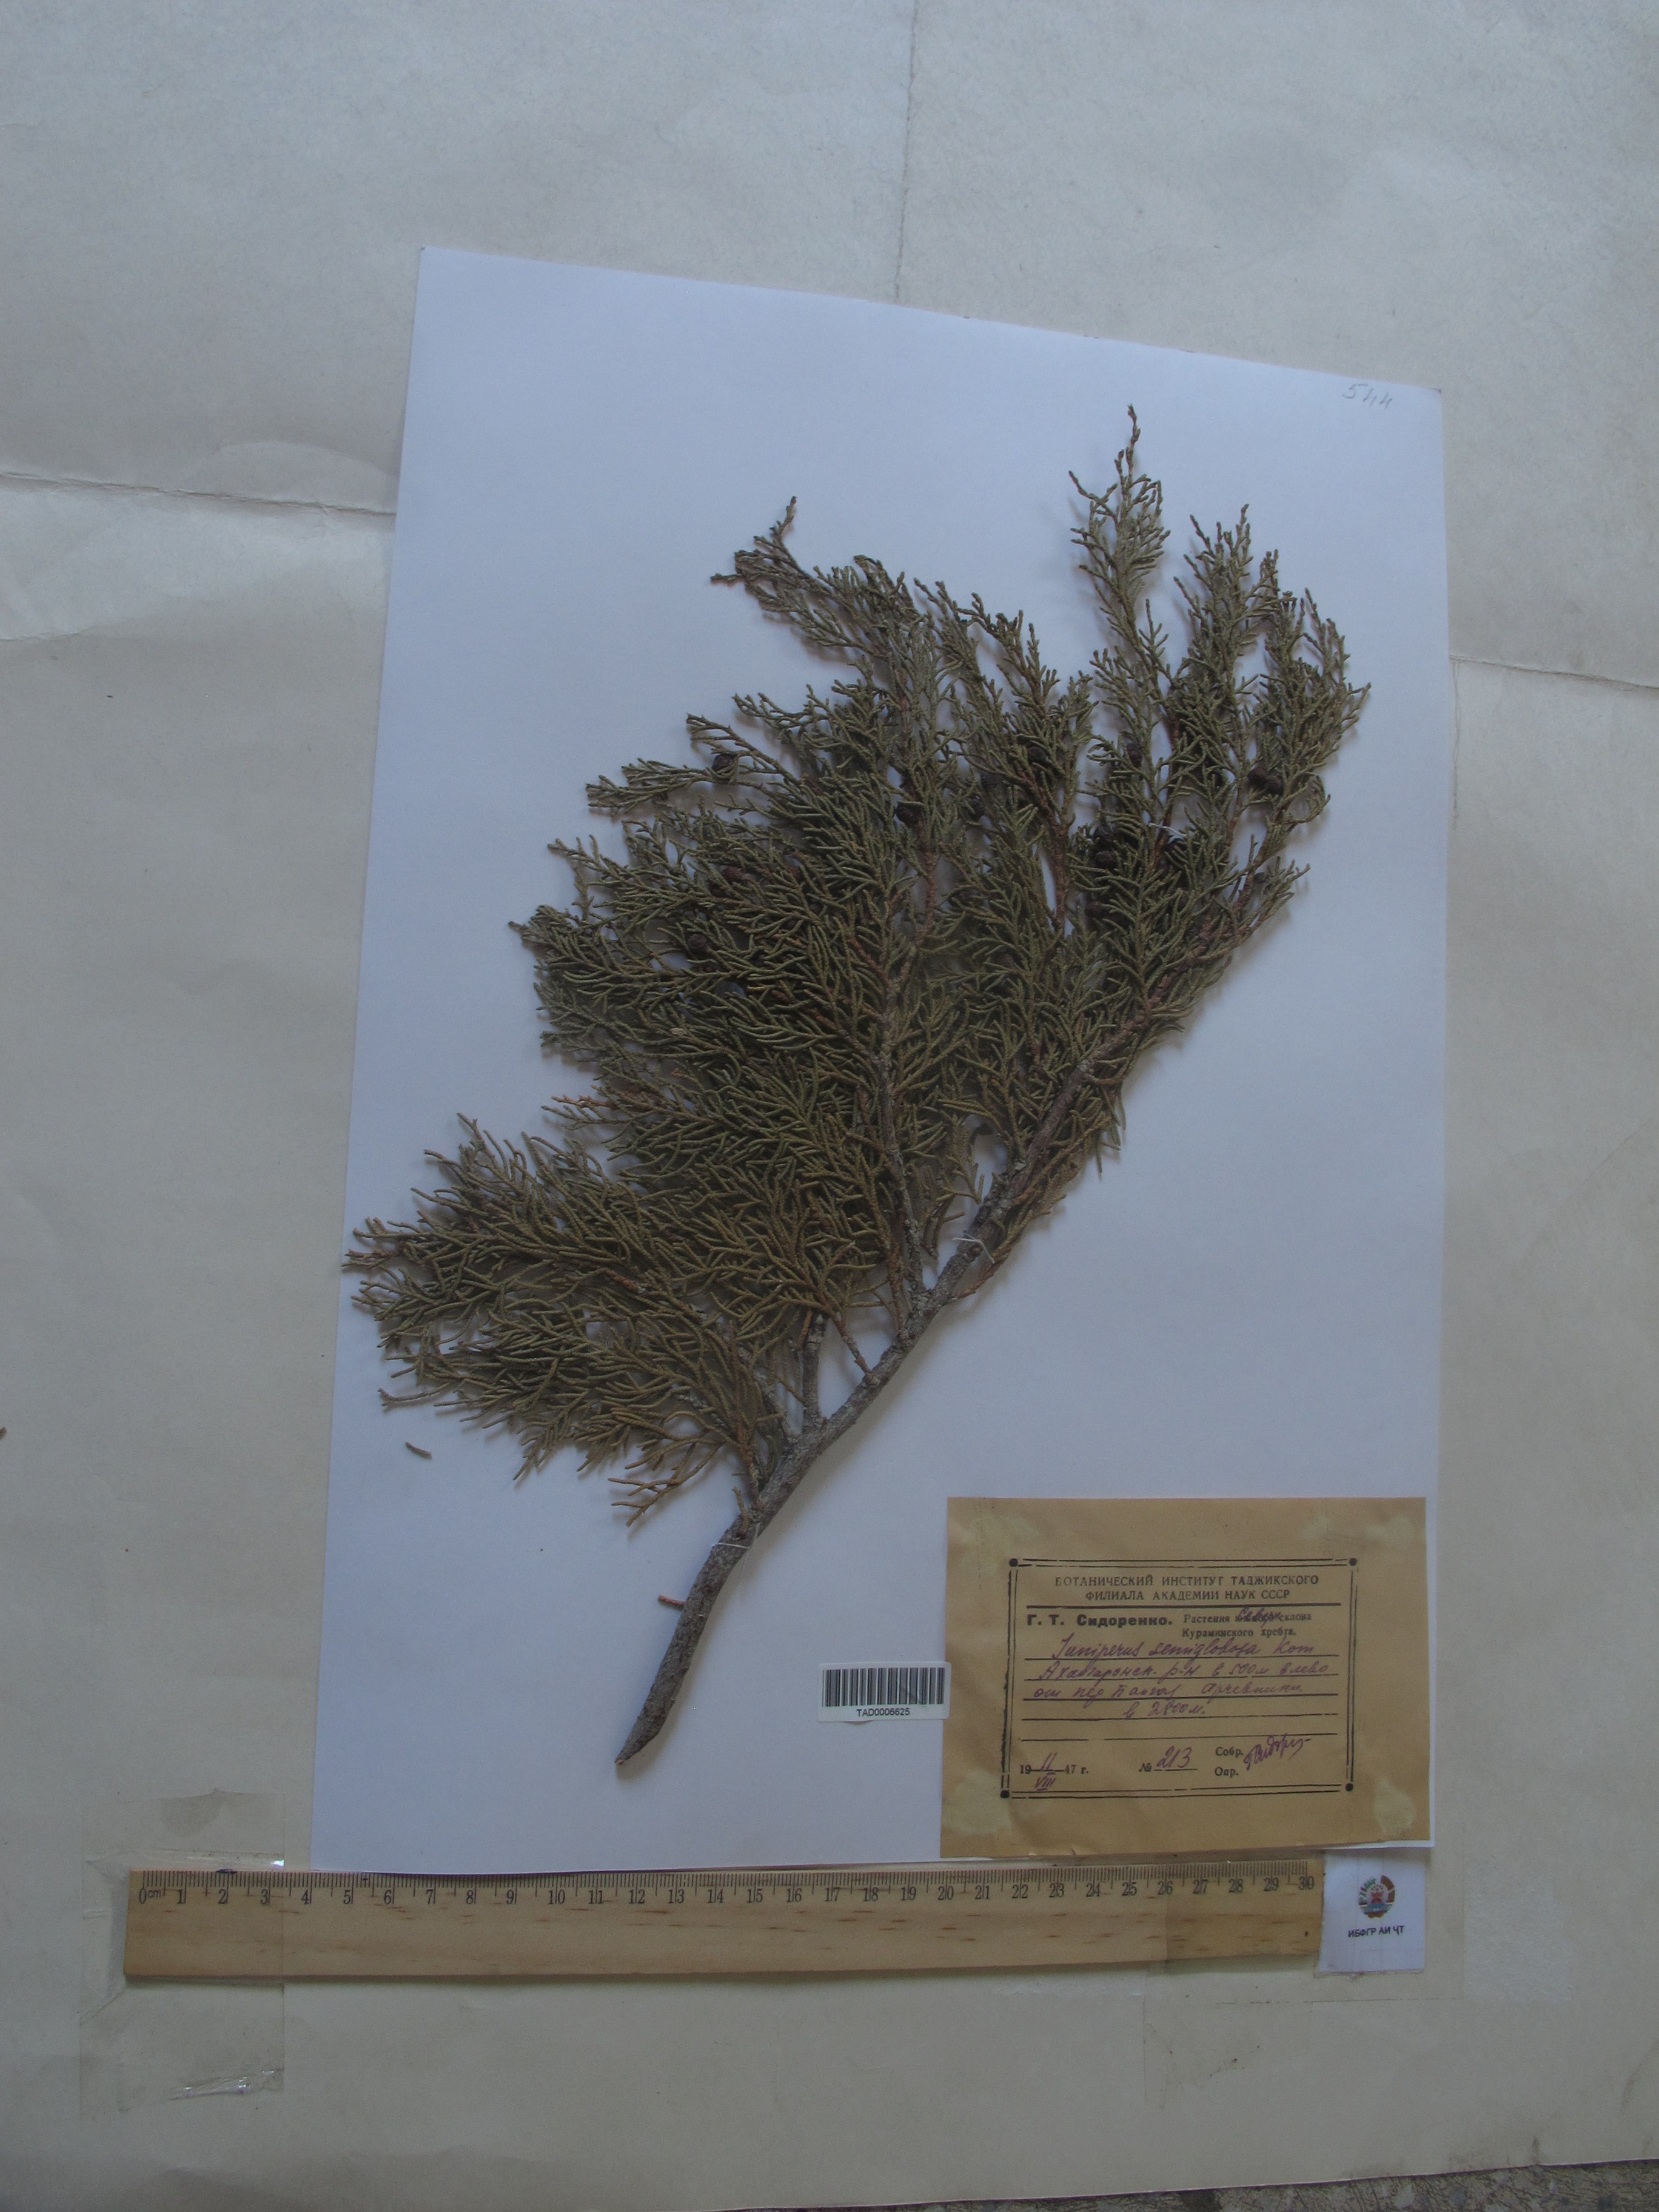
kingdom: Plantae
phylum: Tracheophyta
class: Pinopsida
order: Pinales
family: Cupressaceae
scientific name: Cupressaceae
